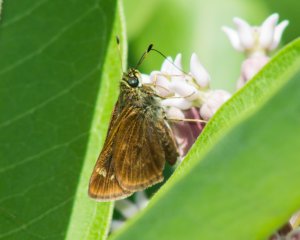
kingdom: Animalia
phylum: Arthropoda
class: Insecta
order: Lepidoptera
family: Hesperiidae
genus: Vernia
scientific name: Vernia verna
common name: Little Glassywing
